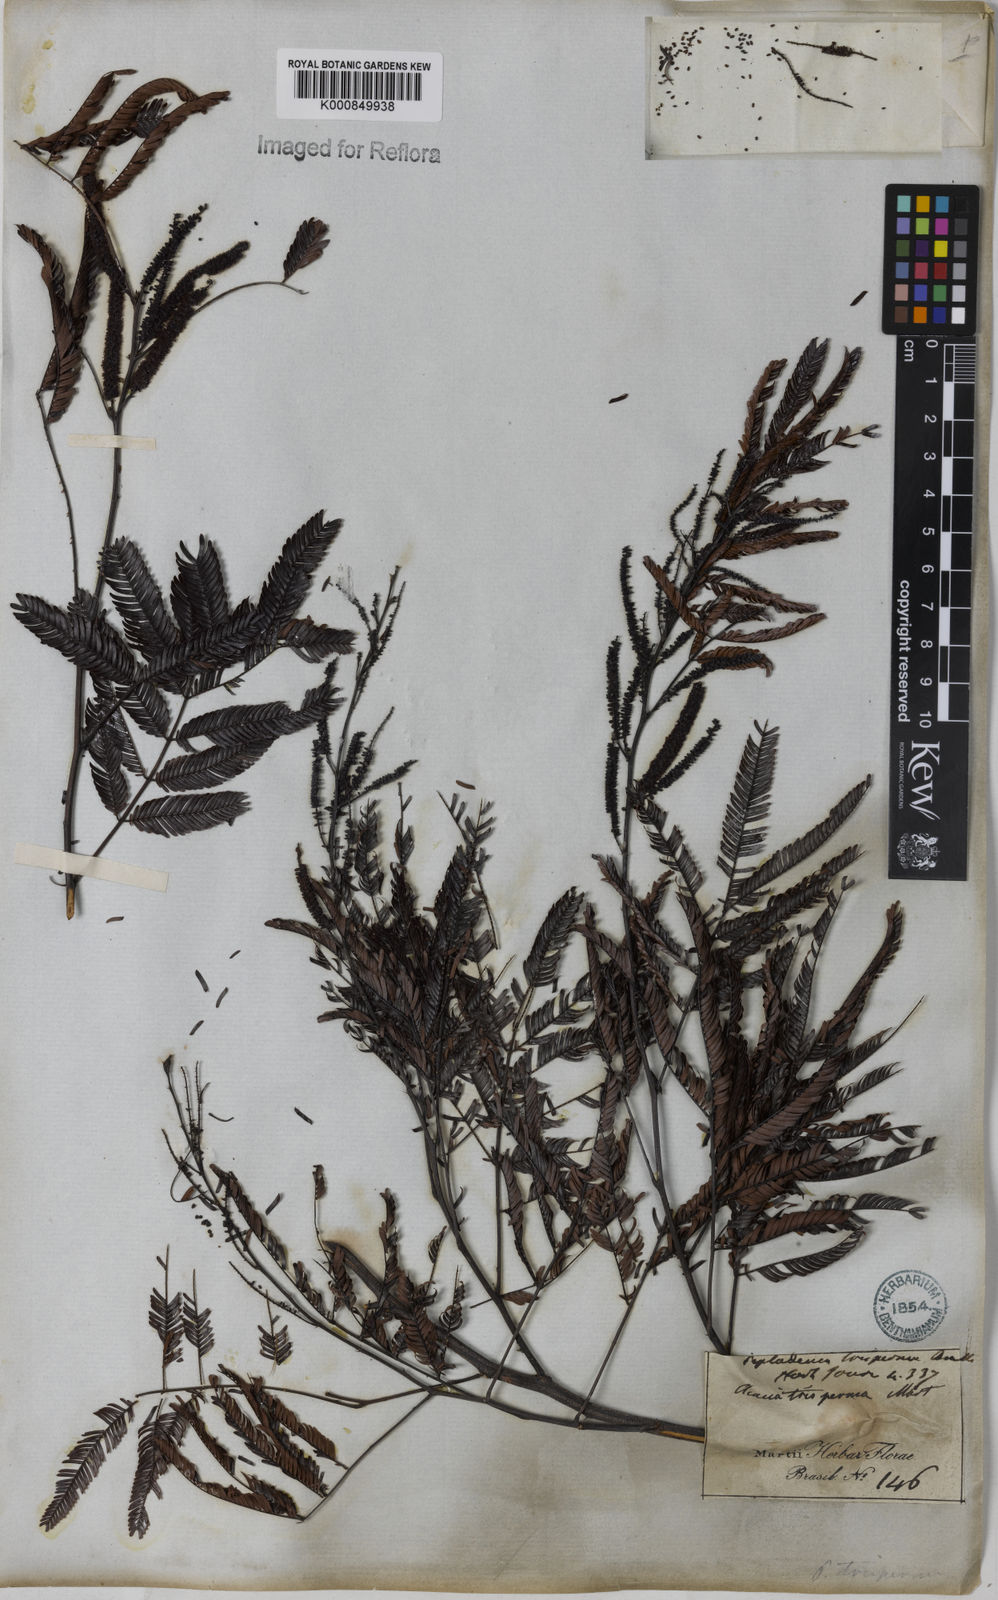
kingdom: Plantae
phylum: Tracheophyta
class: Magnoliopsida
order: Fabales
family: Fabaceae
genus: Piptadenia
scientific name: Piptadenia trisperma
